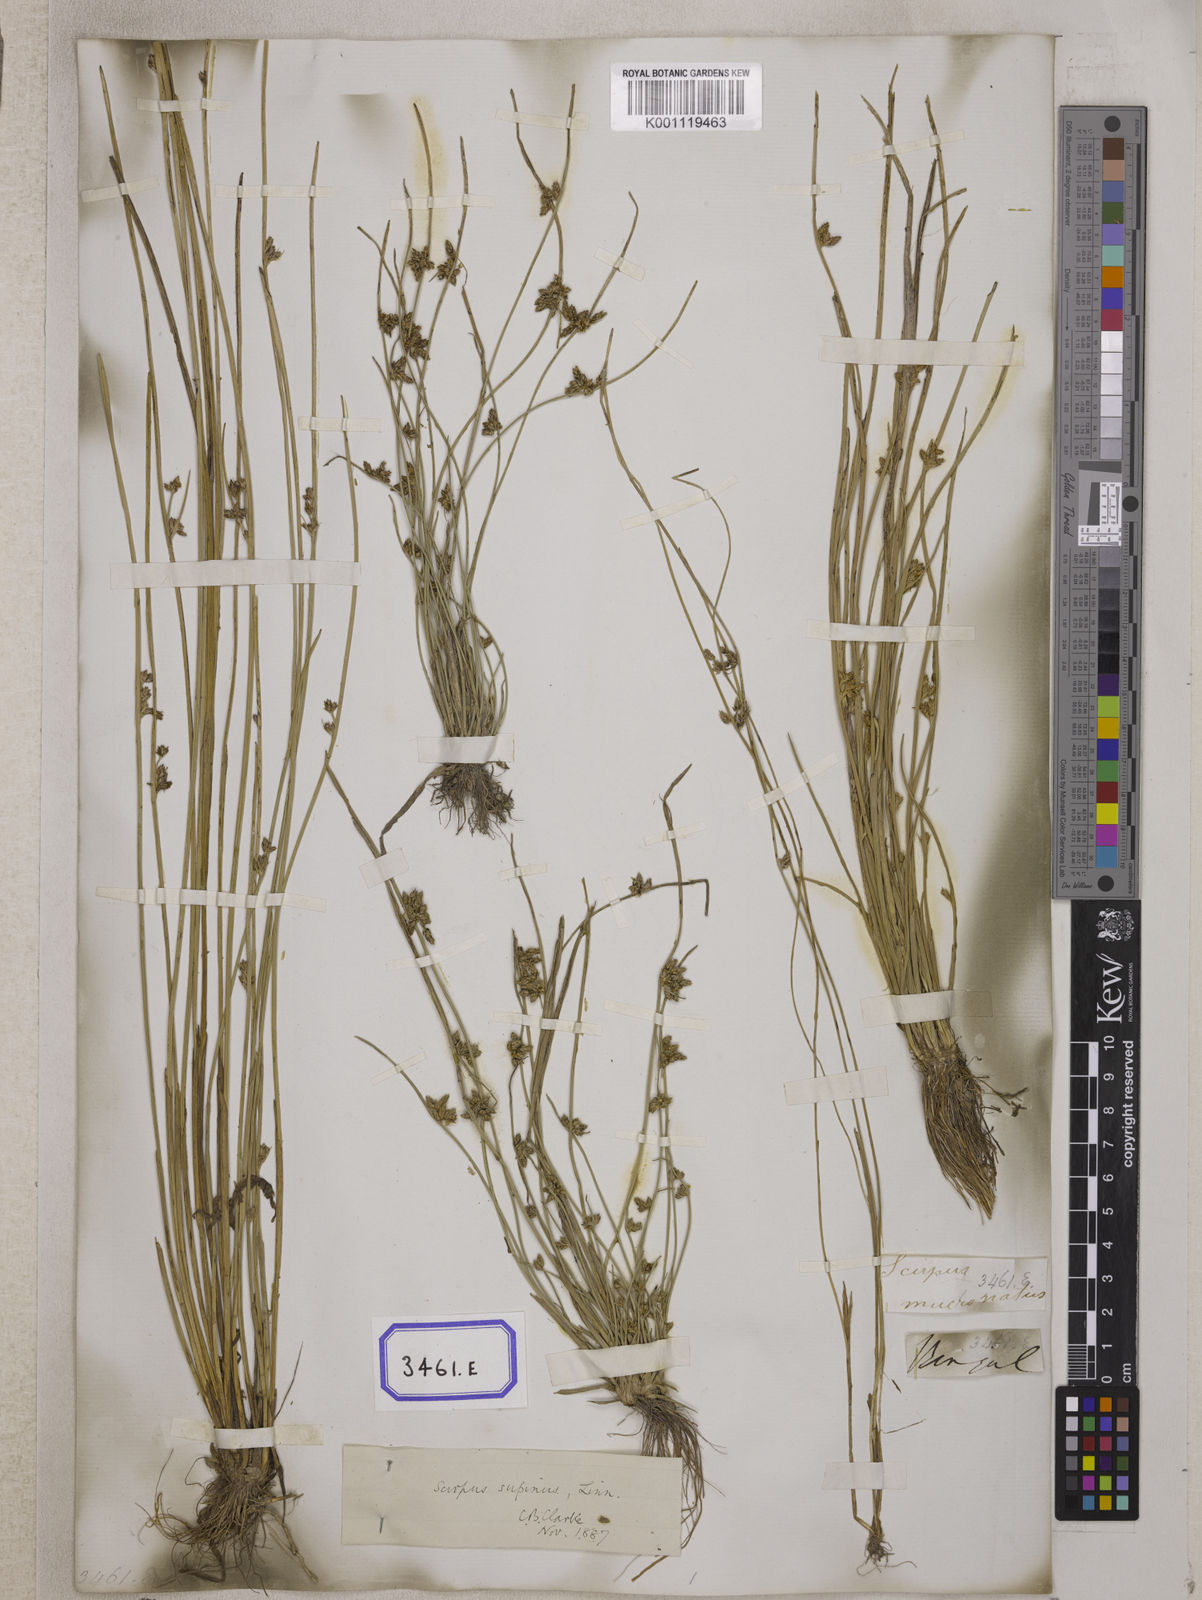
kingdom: Plantae
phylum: Tracheophyta
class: Liliopsida
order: Poales
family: Cyperaceae
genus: Scirpus
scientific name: Scirpus
